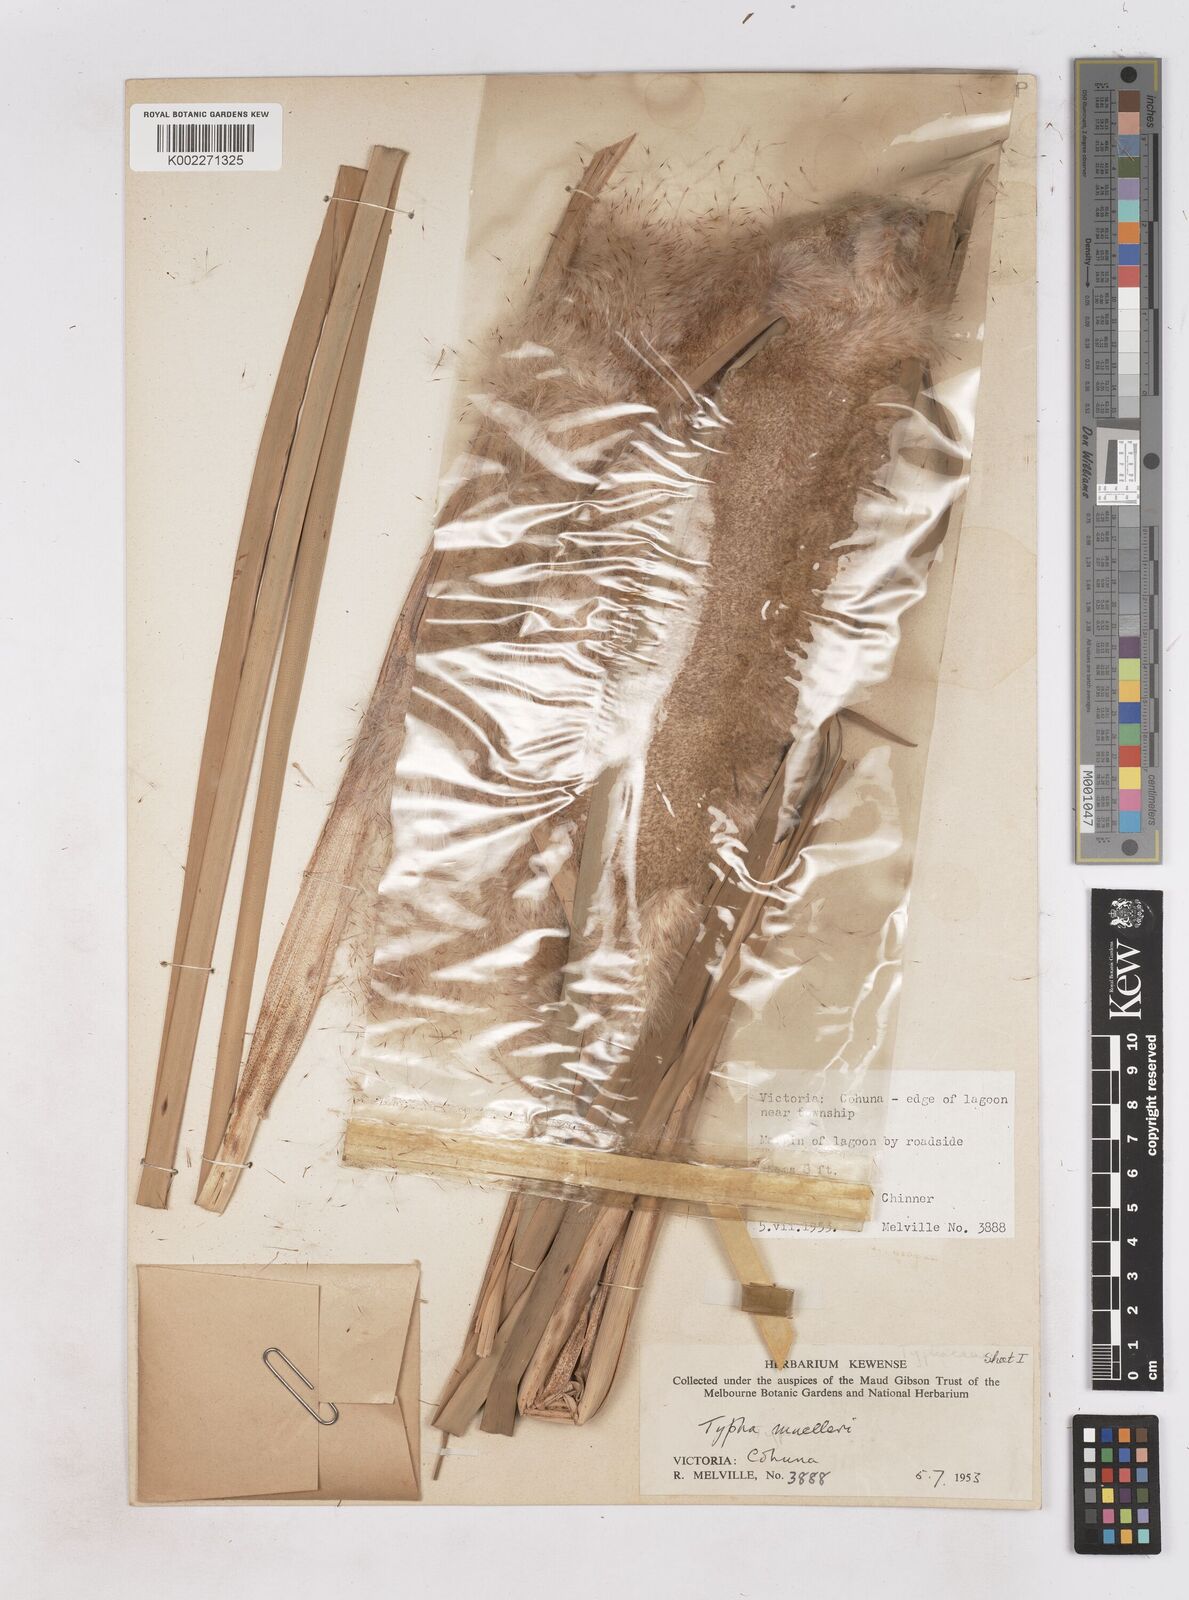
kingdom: Plantae
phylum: Tracheophyta
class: Liliopsida
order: Poales
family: Typhaceae
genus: Typha
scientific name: Typha orientalis
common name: Bullrush
